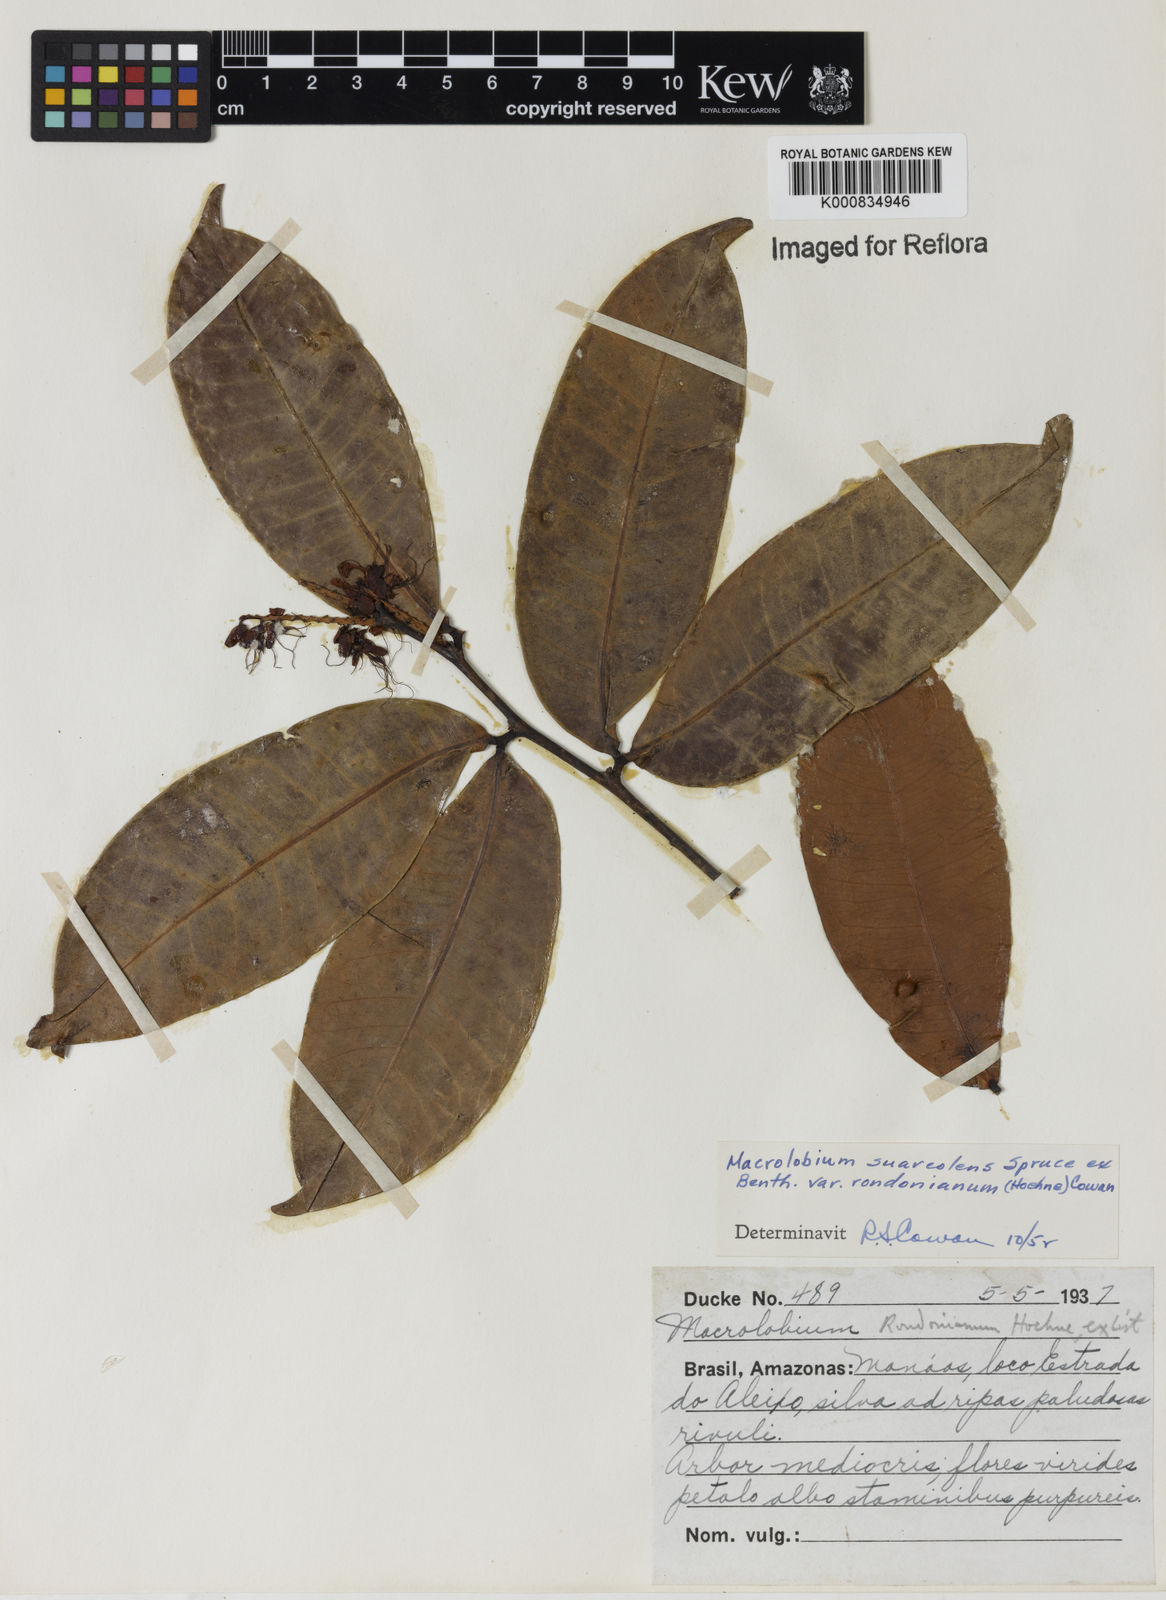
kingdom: Plantae
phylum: Tracheophyta
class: Magnoliopsida
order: Fabales
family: Fabaceae
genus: Macrolobium
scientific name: Macrolobium suaveolens
